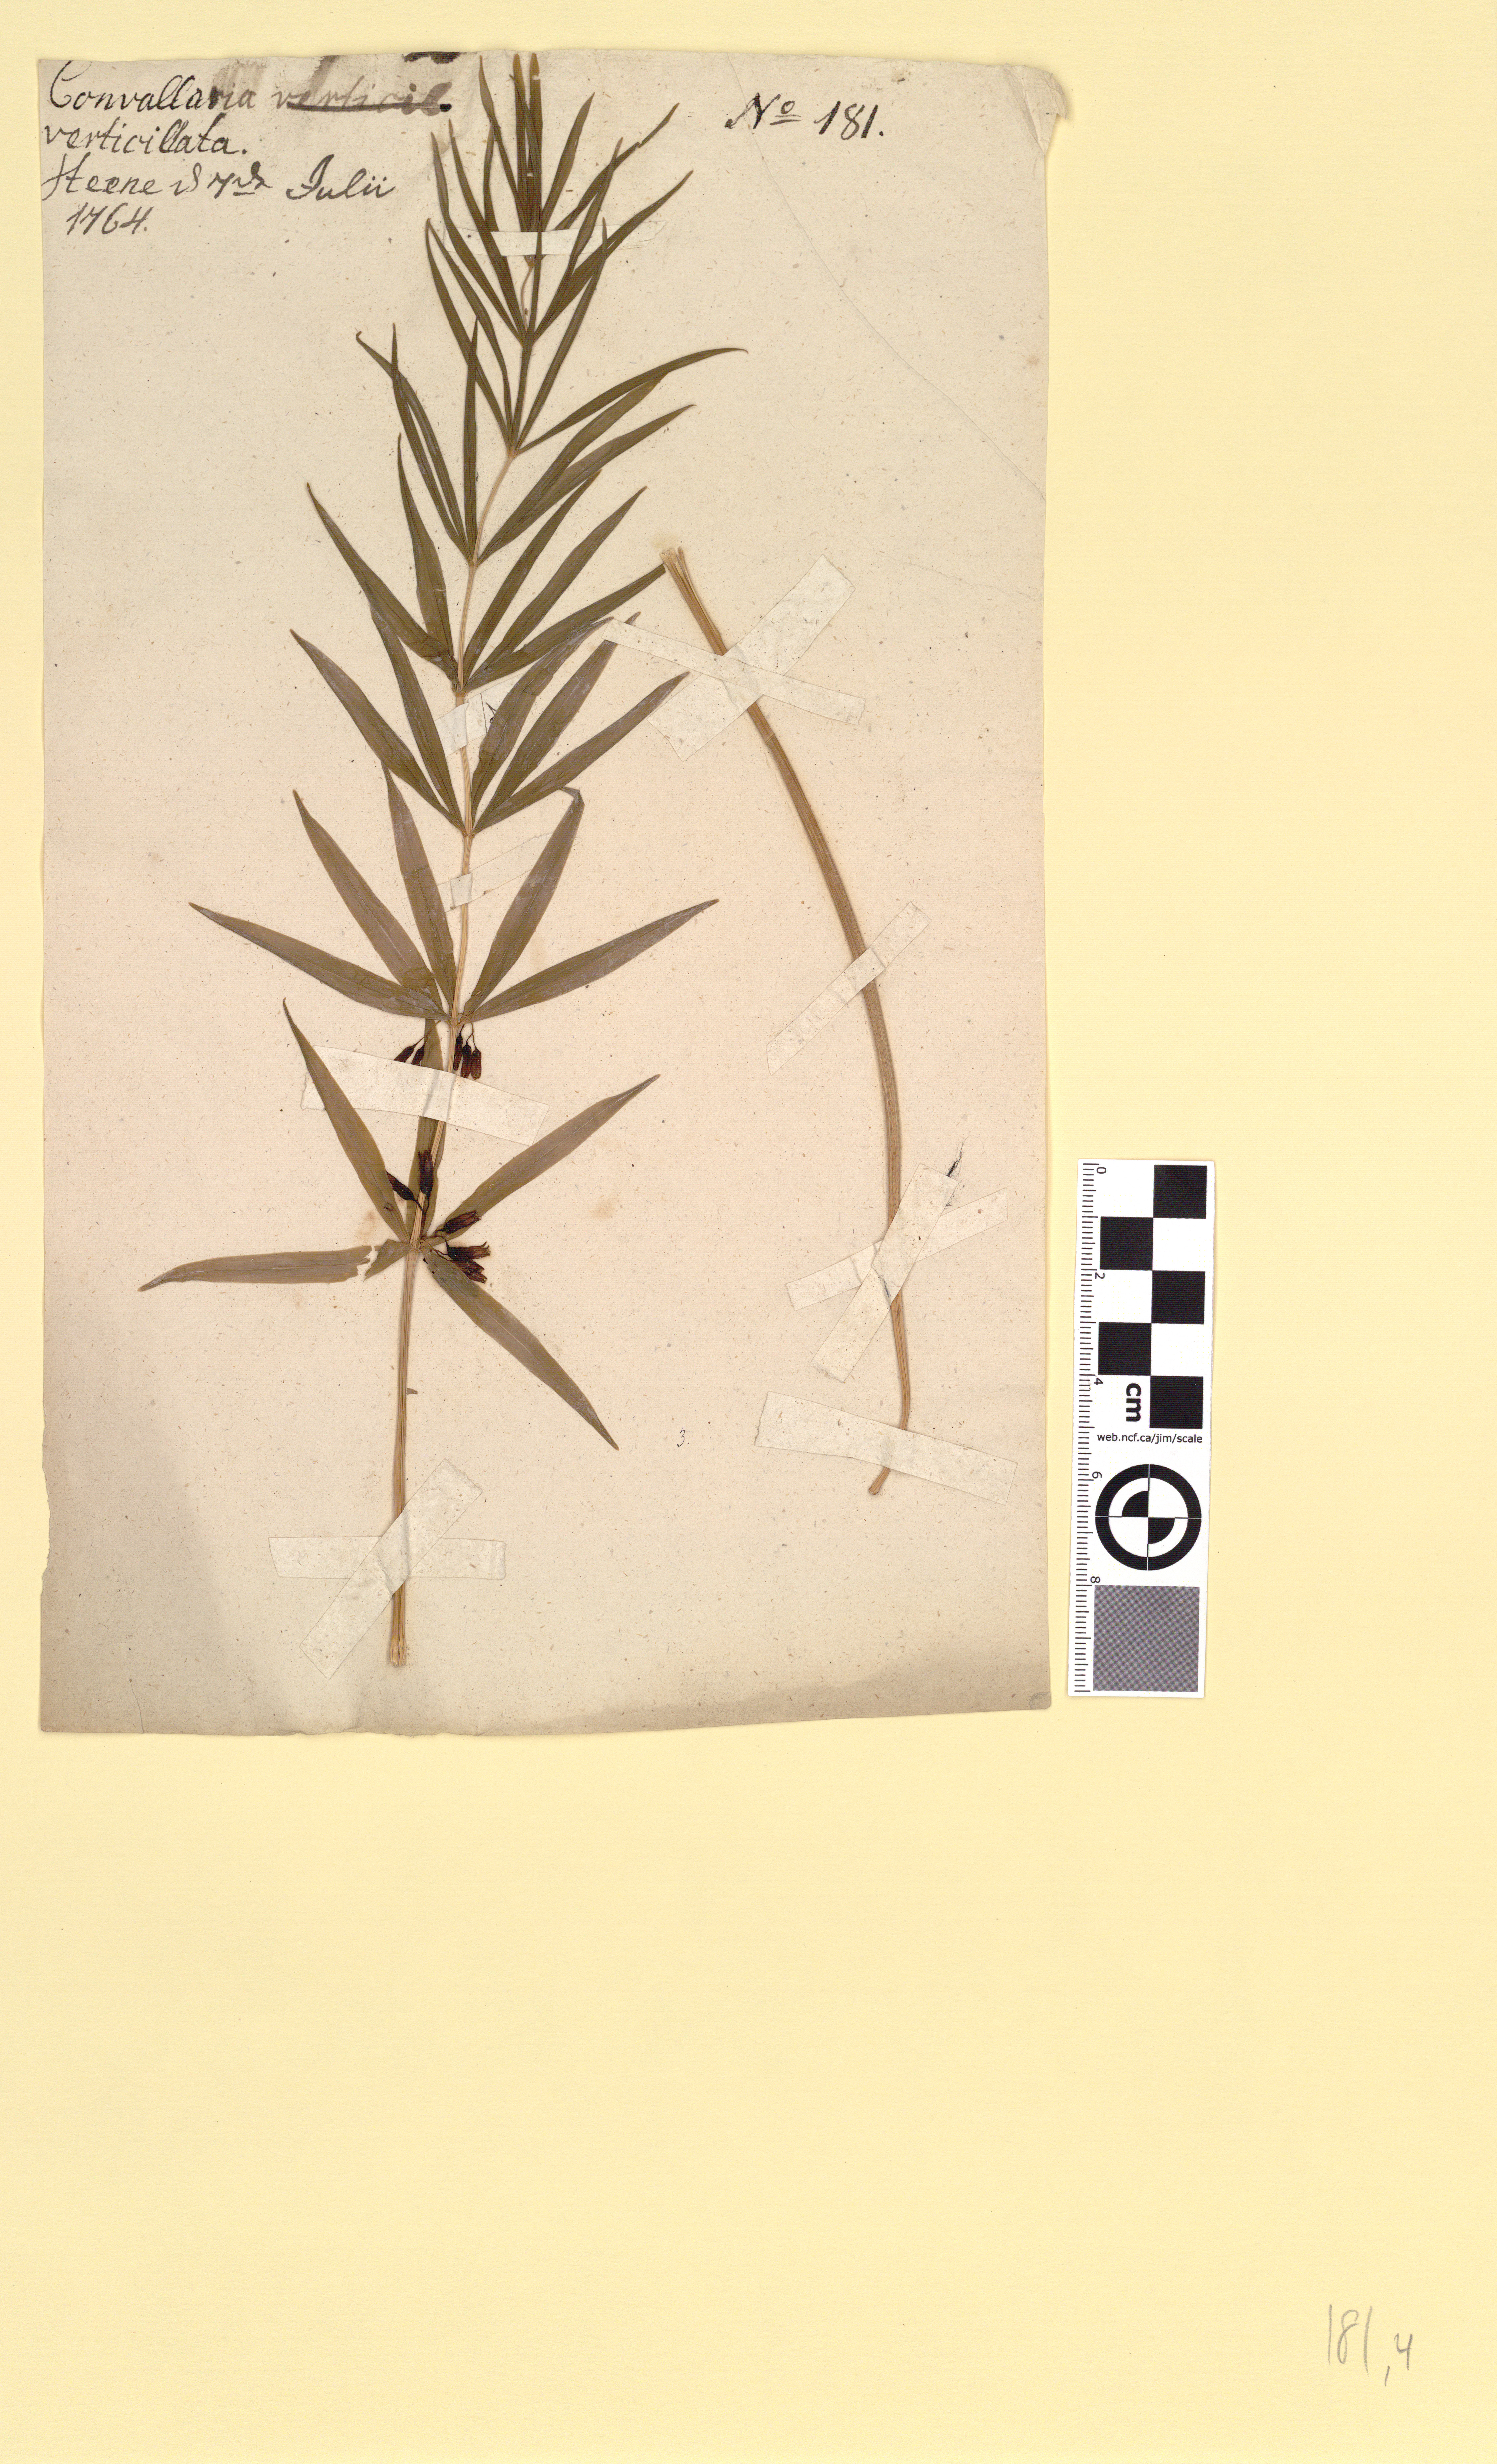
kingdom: Plantae
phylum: Tracheophyta
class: Liliopsida
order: Asparagales
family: Asparagaceae
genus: Polygonatum
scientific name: Polygonatum verticillatum
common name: Whorled solomon's-seal
